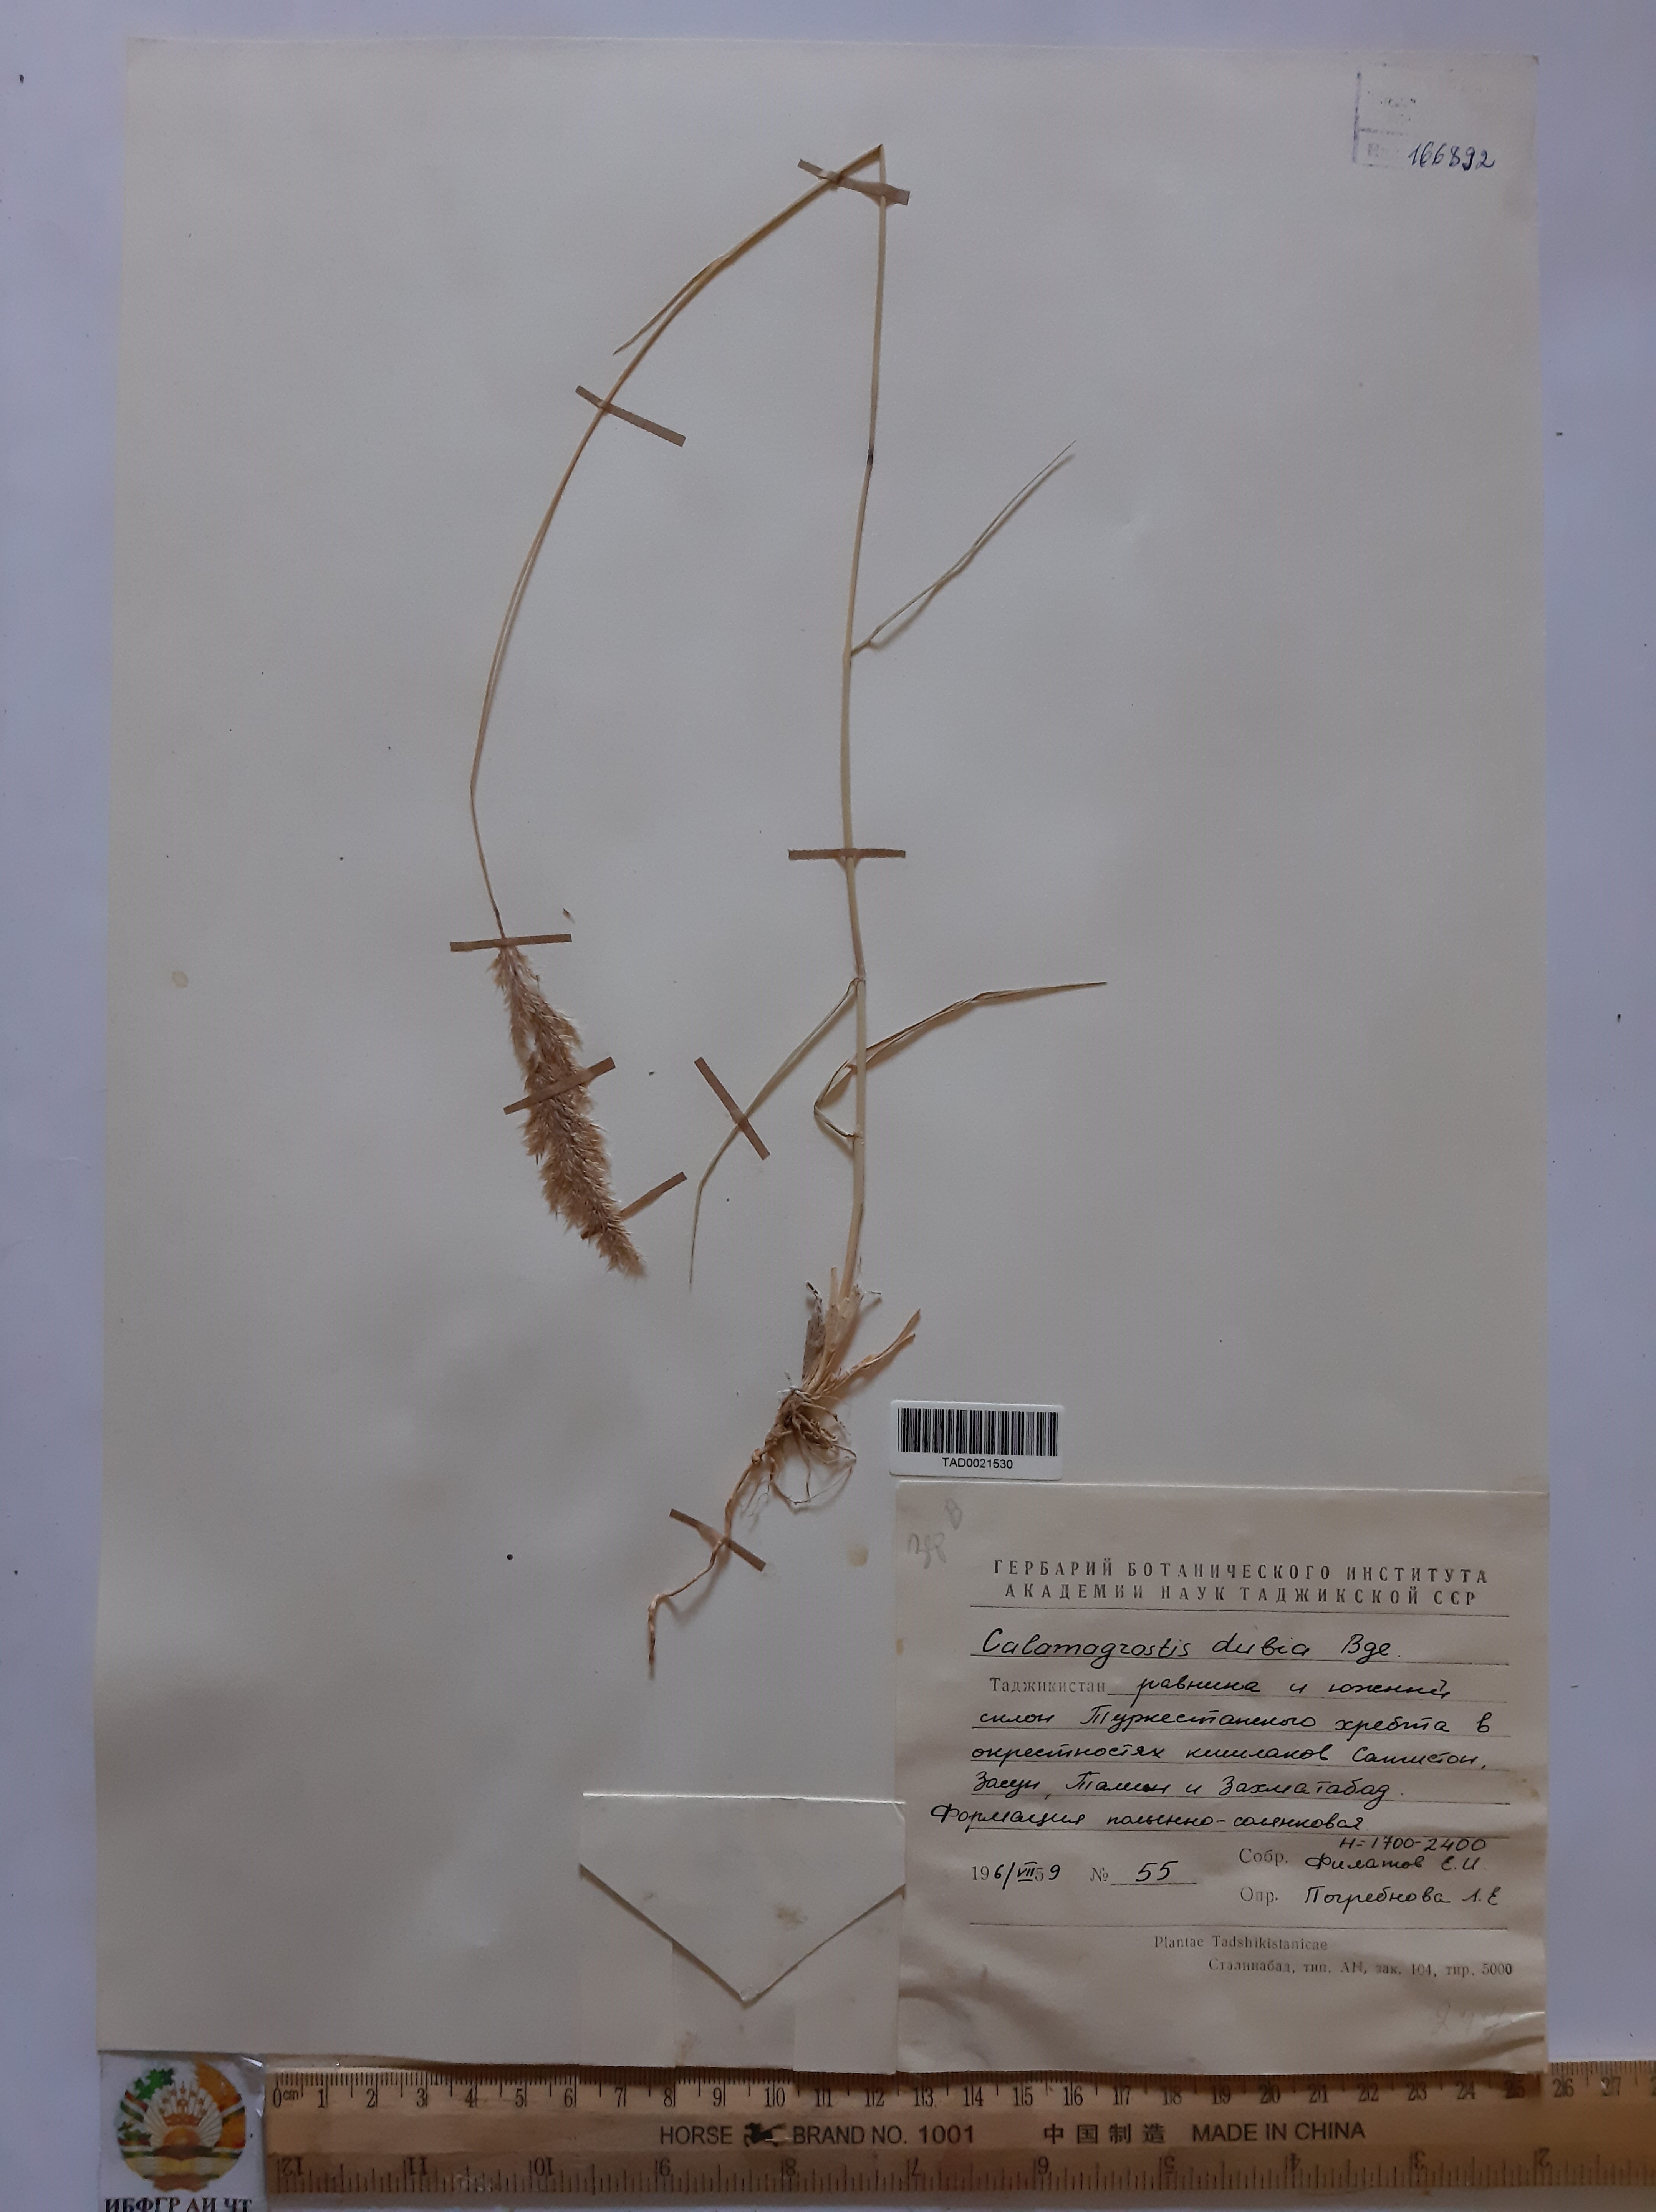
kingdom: Plantae
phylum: Tracheophyta
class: Liliopsida
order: Poales
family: Poaceae
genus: Calamagrostis
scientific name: Calamagrostis pseudophragmites
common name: Coastal small-reed
